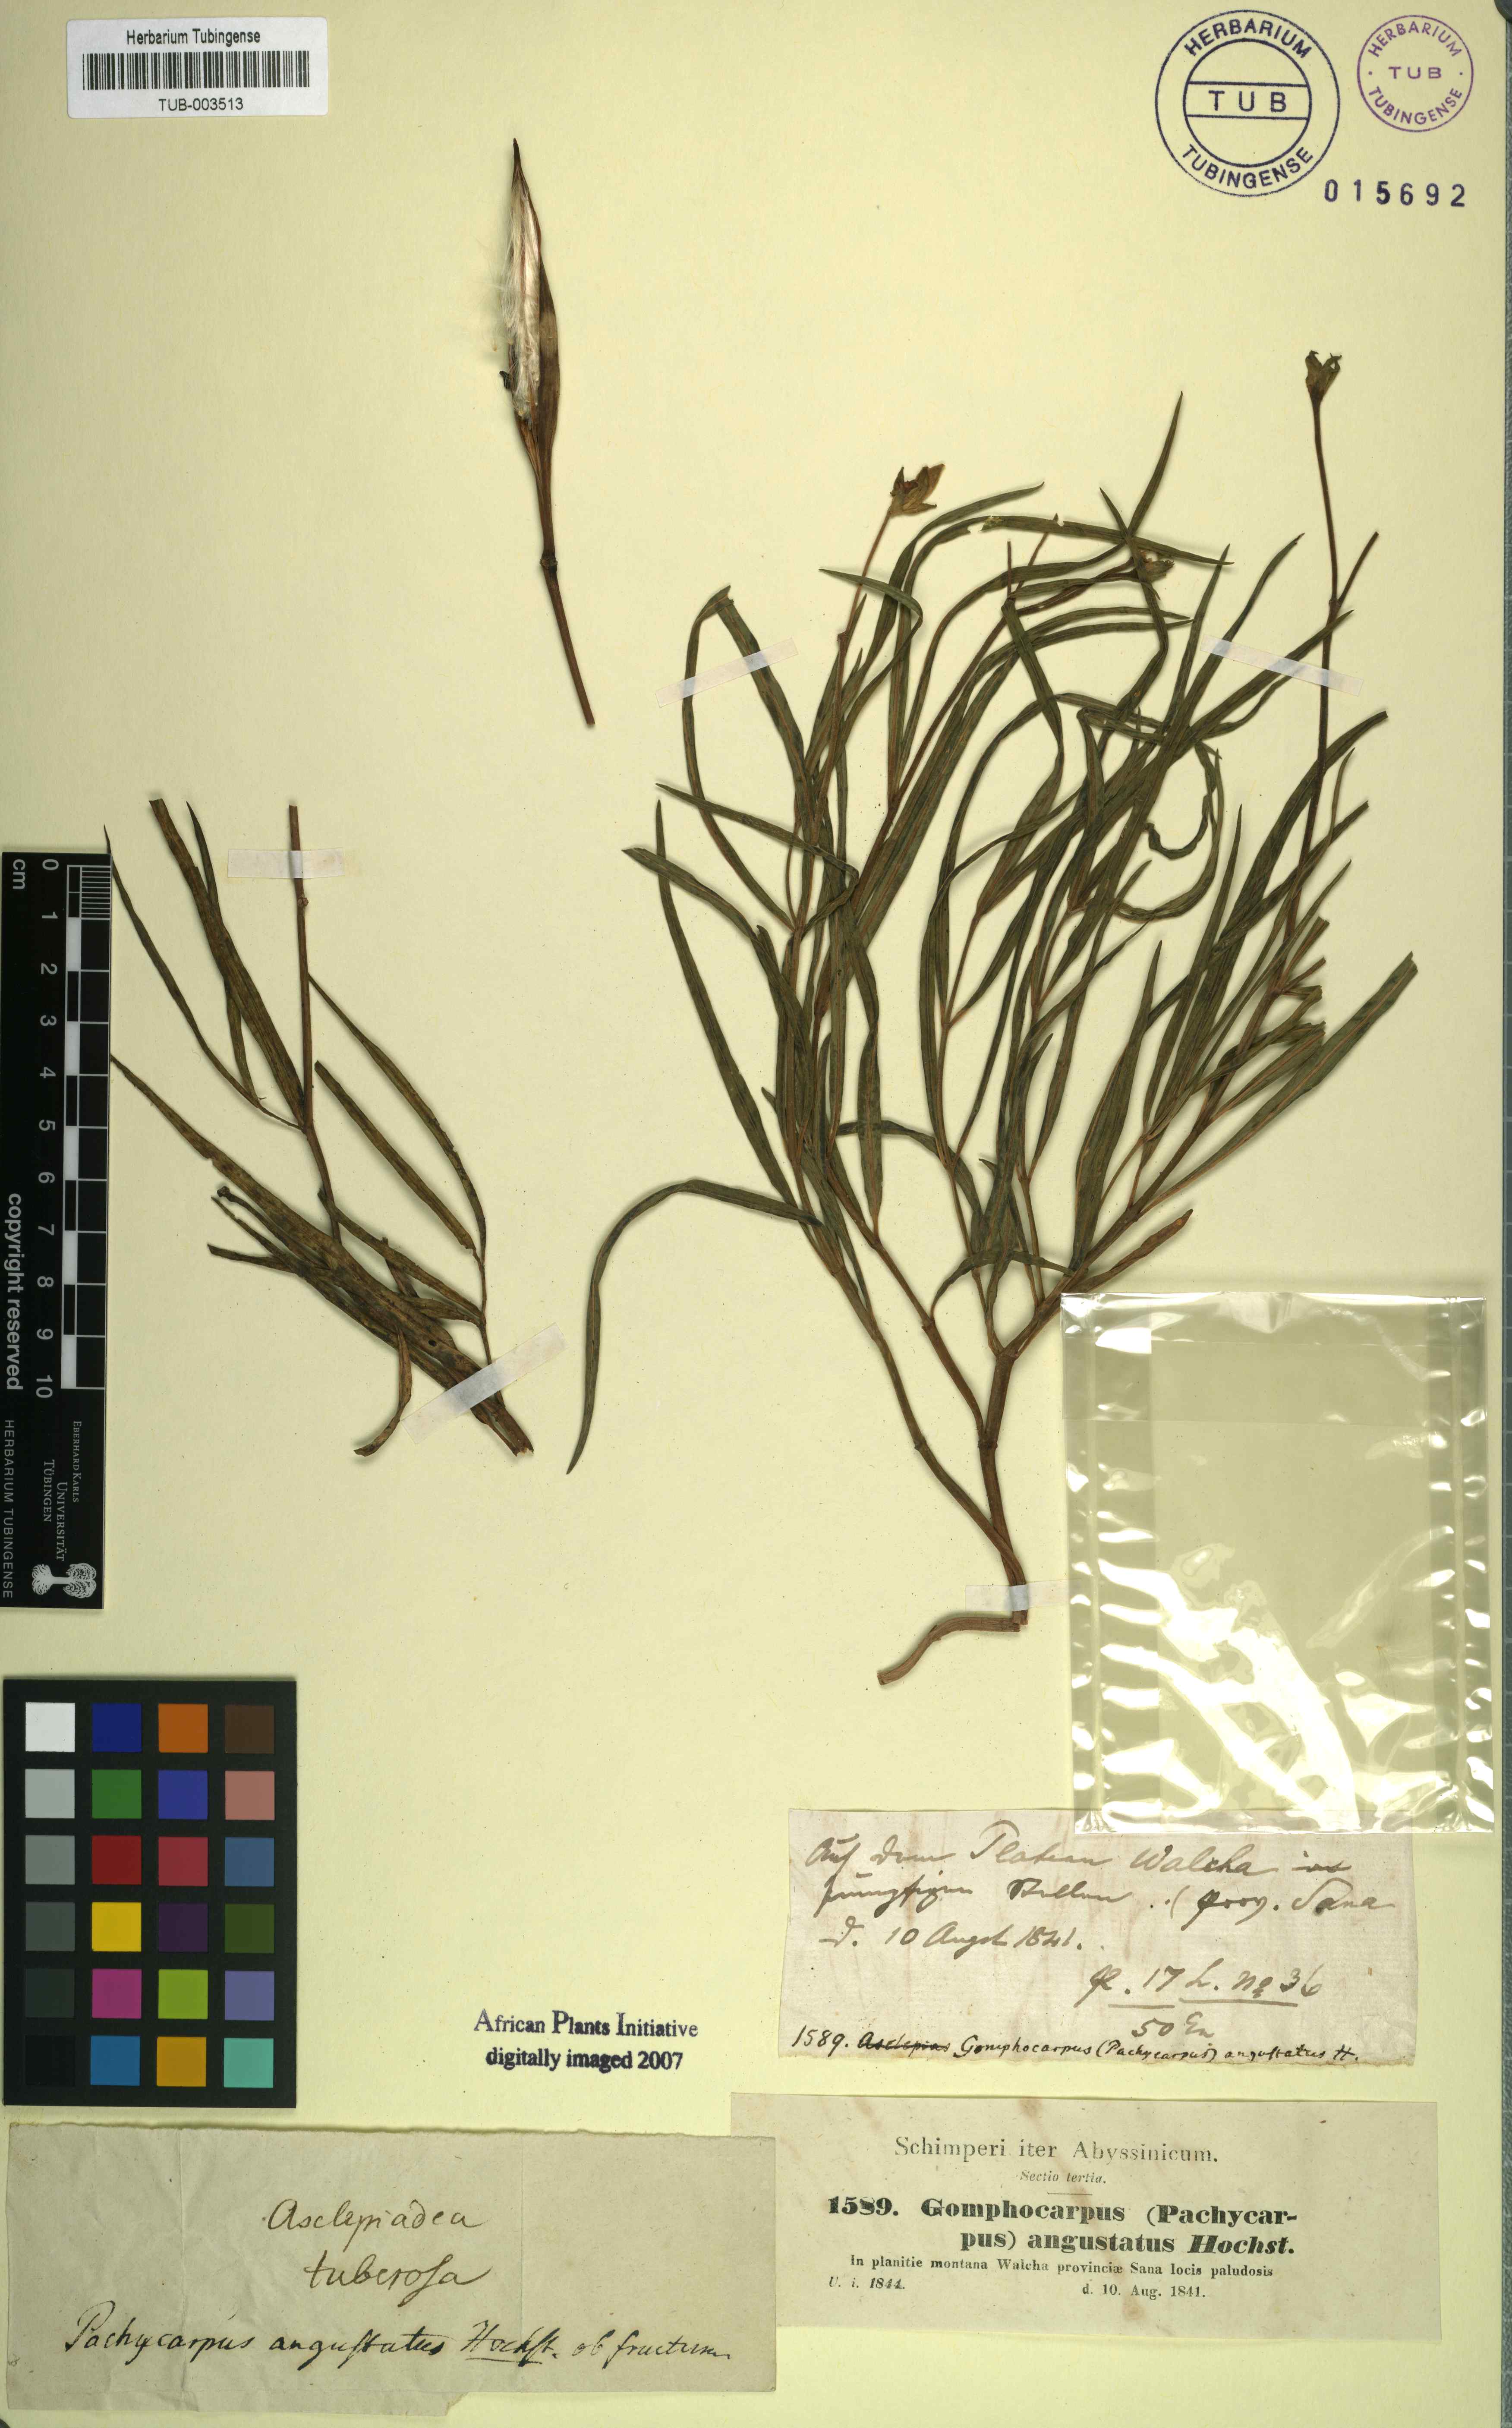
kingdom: Plantae
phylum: Tracheophyta
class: Magnoliopsida
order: Gentianales
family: Apocynaceae
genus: Stathmostelma
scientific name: Stathmostelma angustatum
